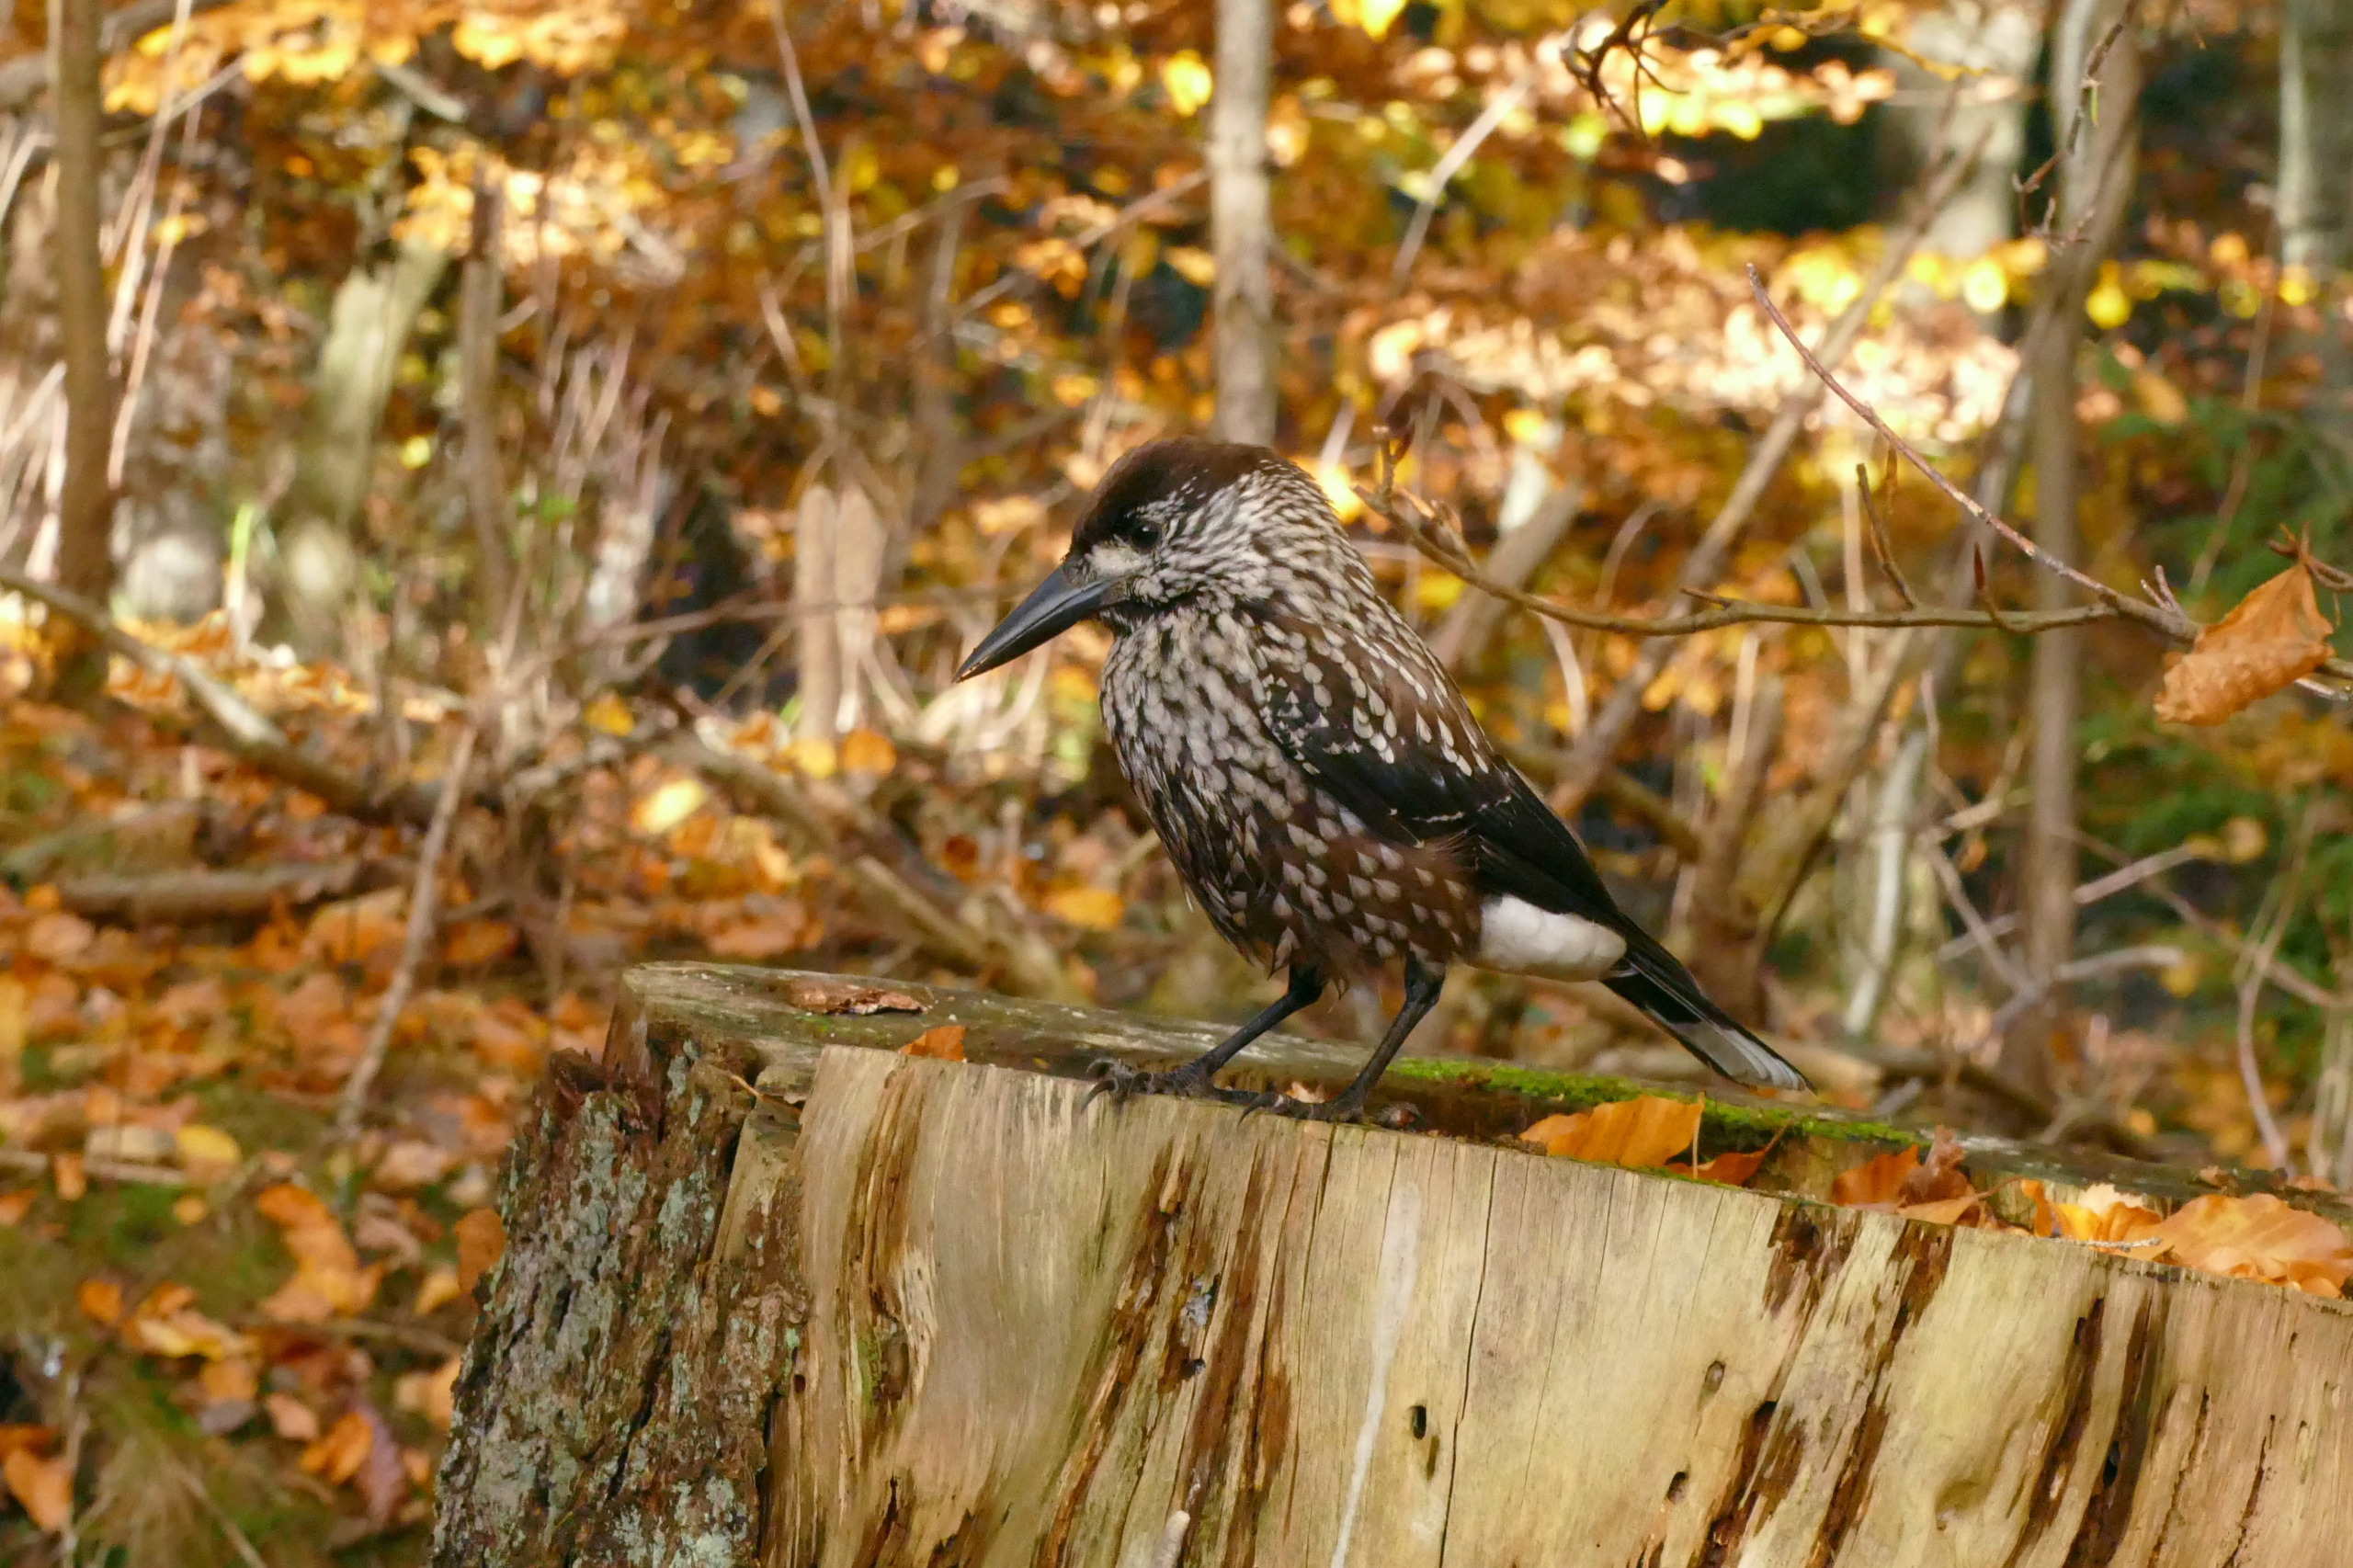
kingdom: Animalia
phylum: Chordata
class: Aves
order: Passeriformes
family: Corvidae
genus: Nucifraga
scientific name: Nucifraga caryocatactes
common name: Nøddekrige
